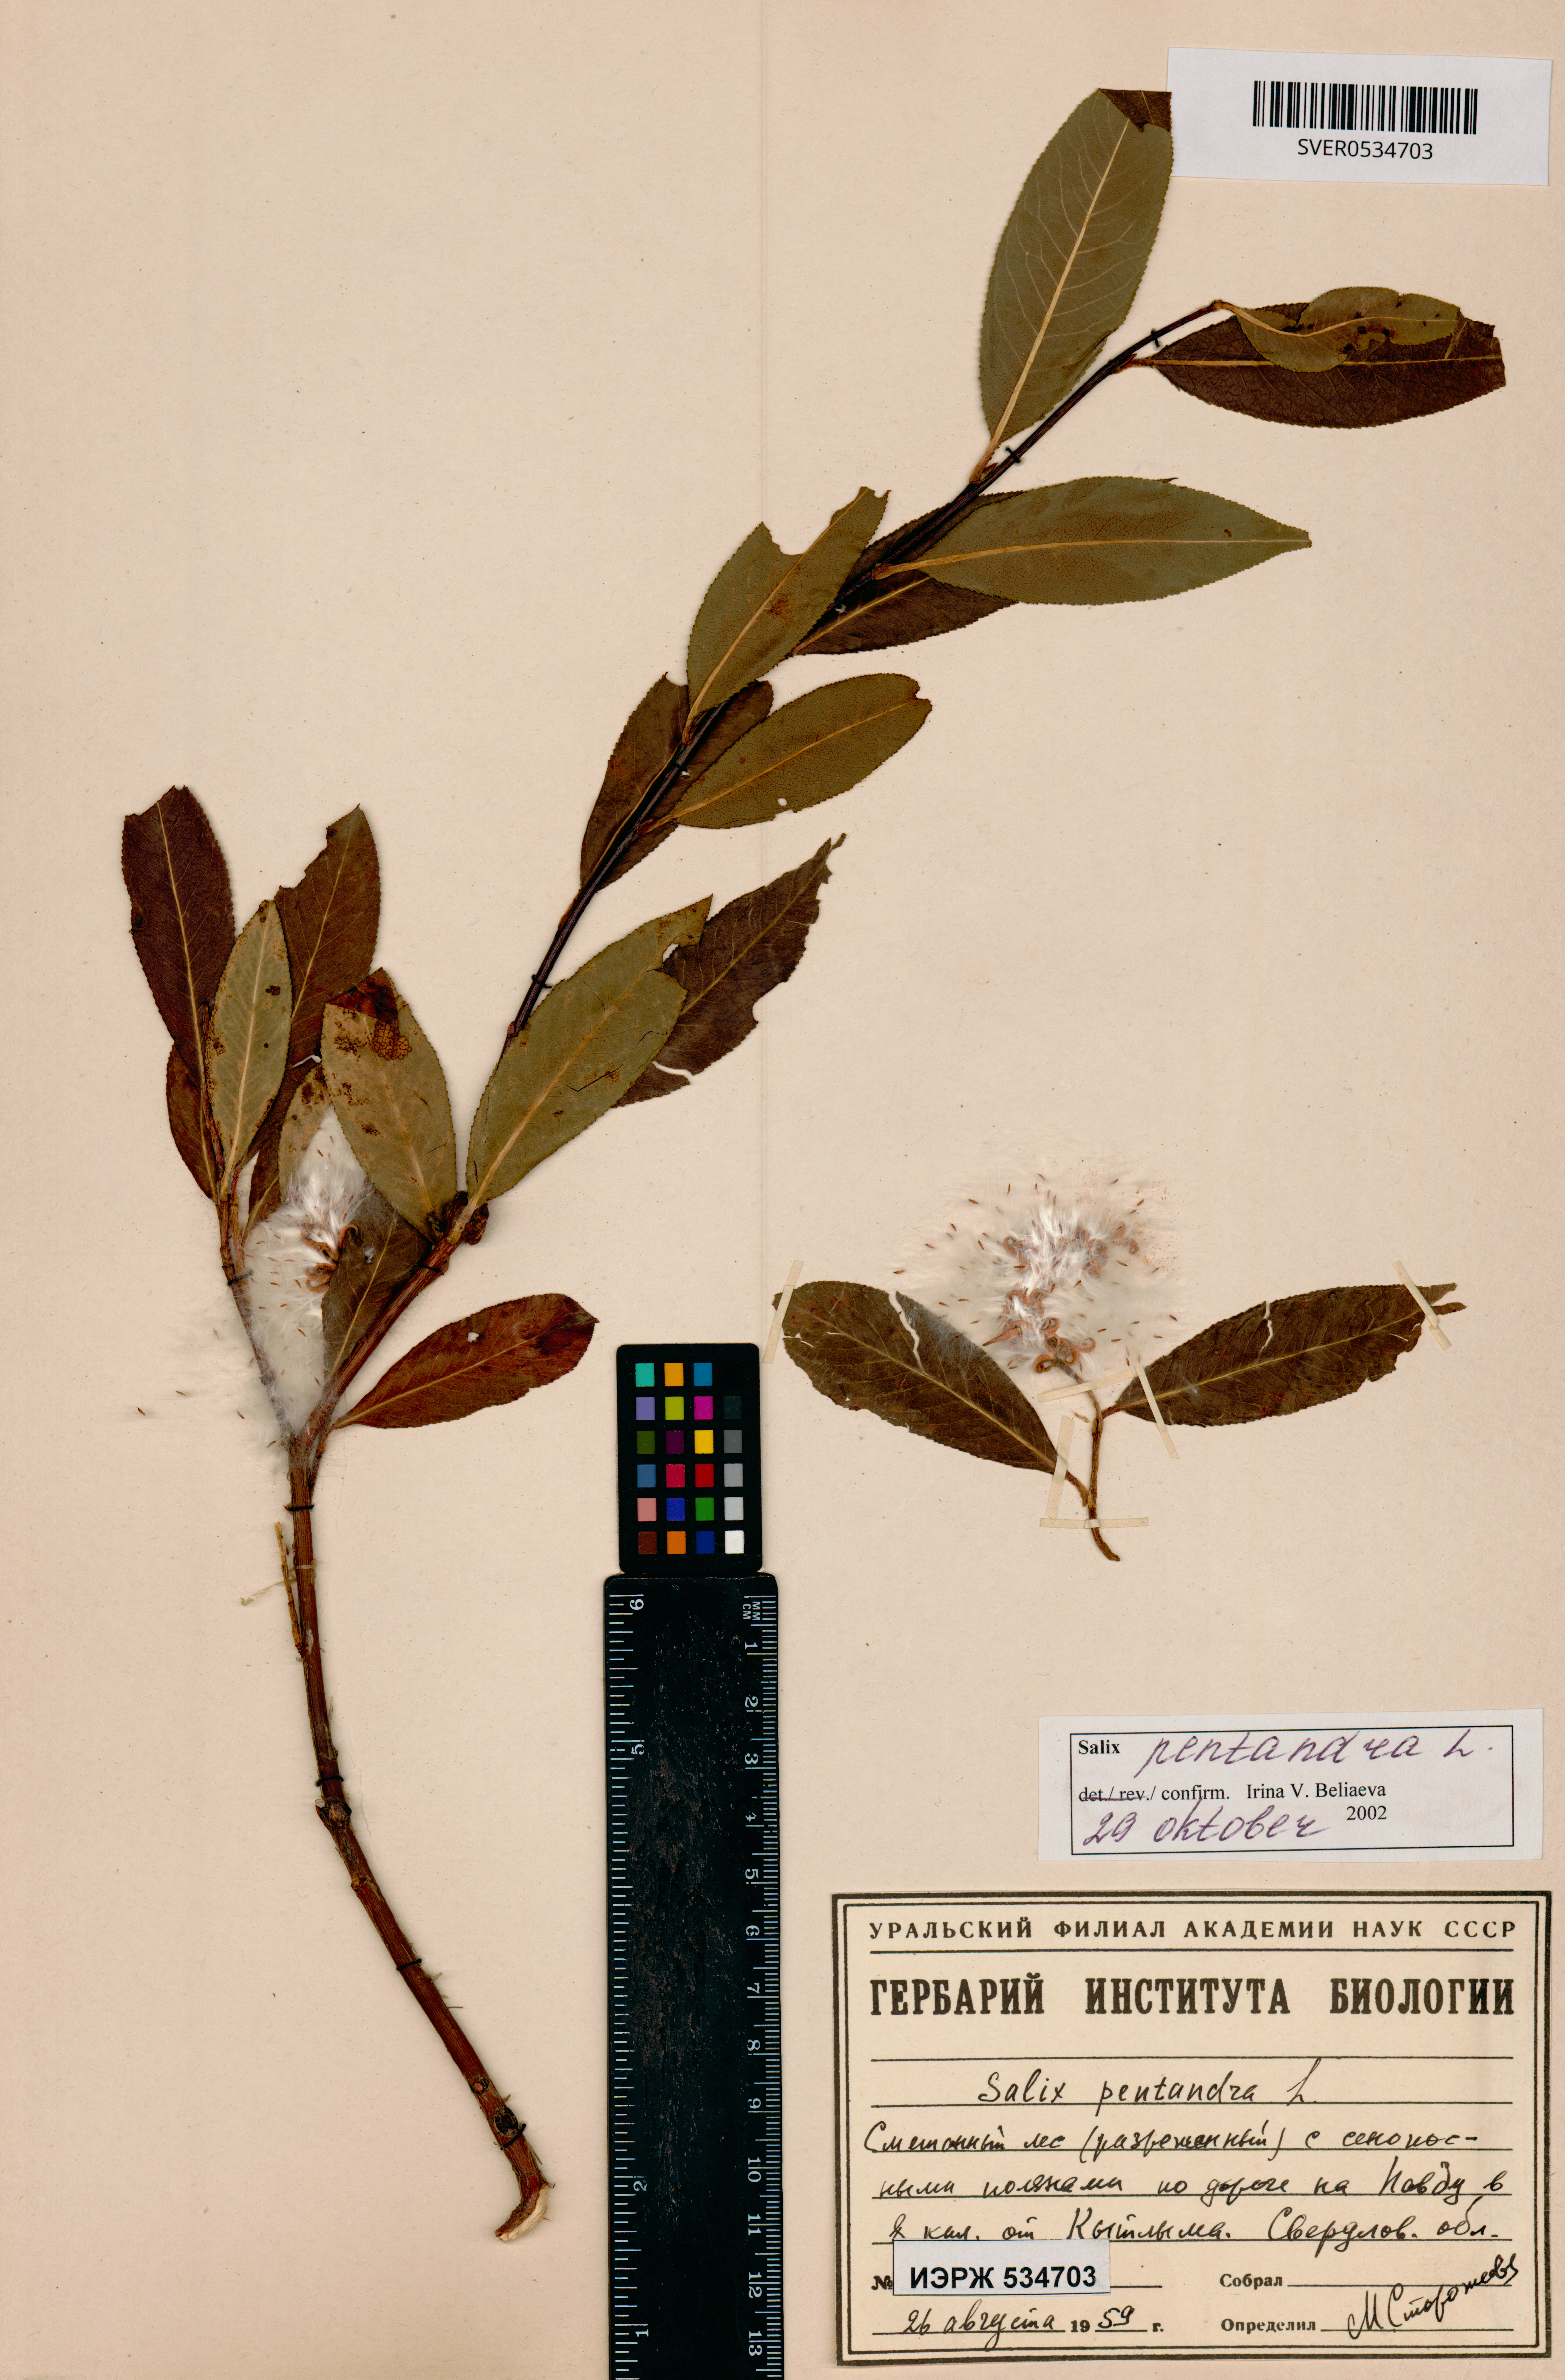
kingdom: Plantae
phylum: Tracheophyta
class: Magnoliopsida
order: Malpighiales
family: Salicaceae
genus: Salix
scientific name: Salix pentandra
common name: Bay willow
